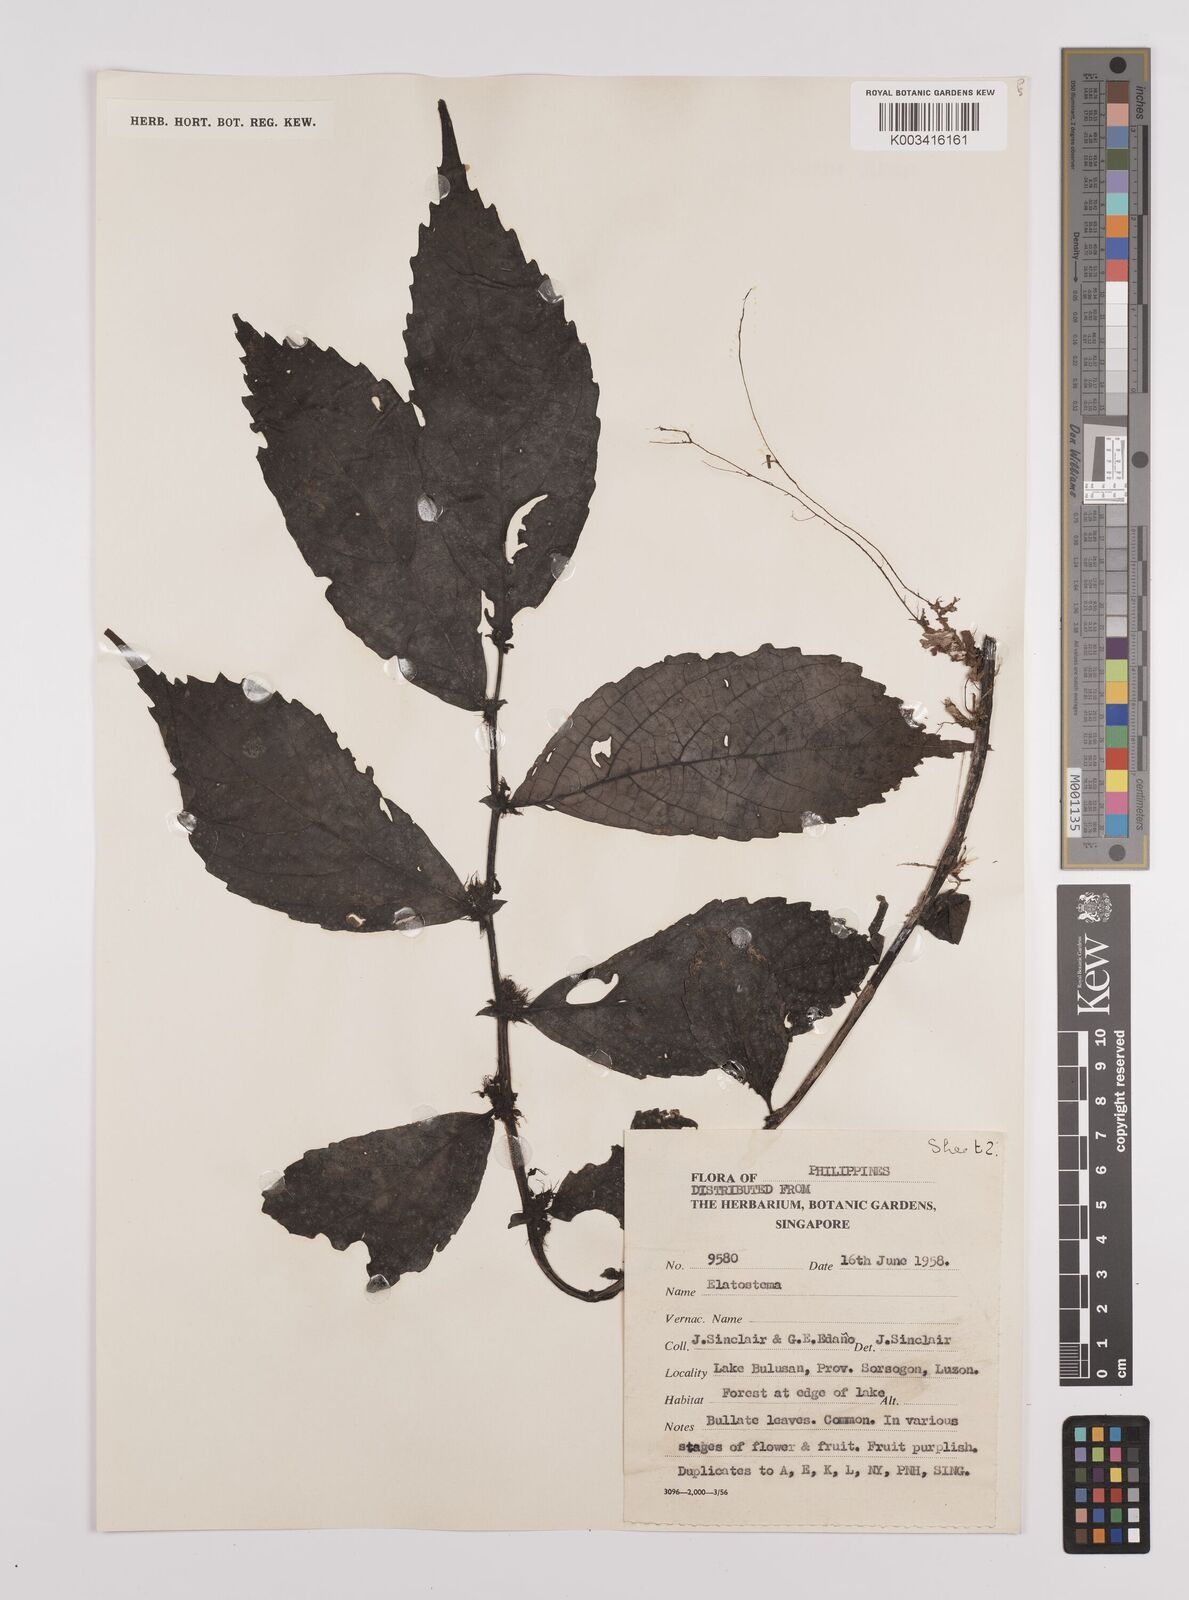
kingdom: Plantae
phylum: Tracheophyta
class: Magnoliopsida
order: Rosales
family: Urticaceae
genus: Elatostema
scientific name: Elatostema
